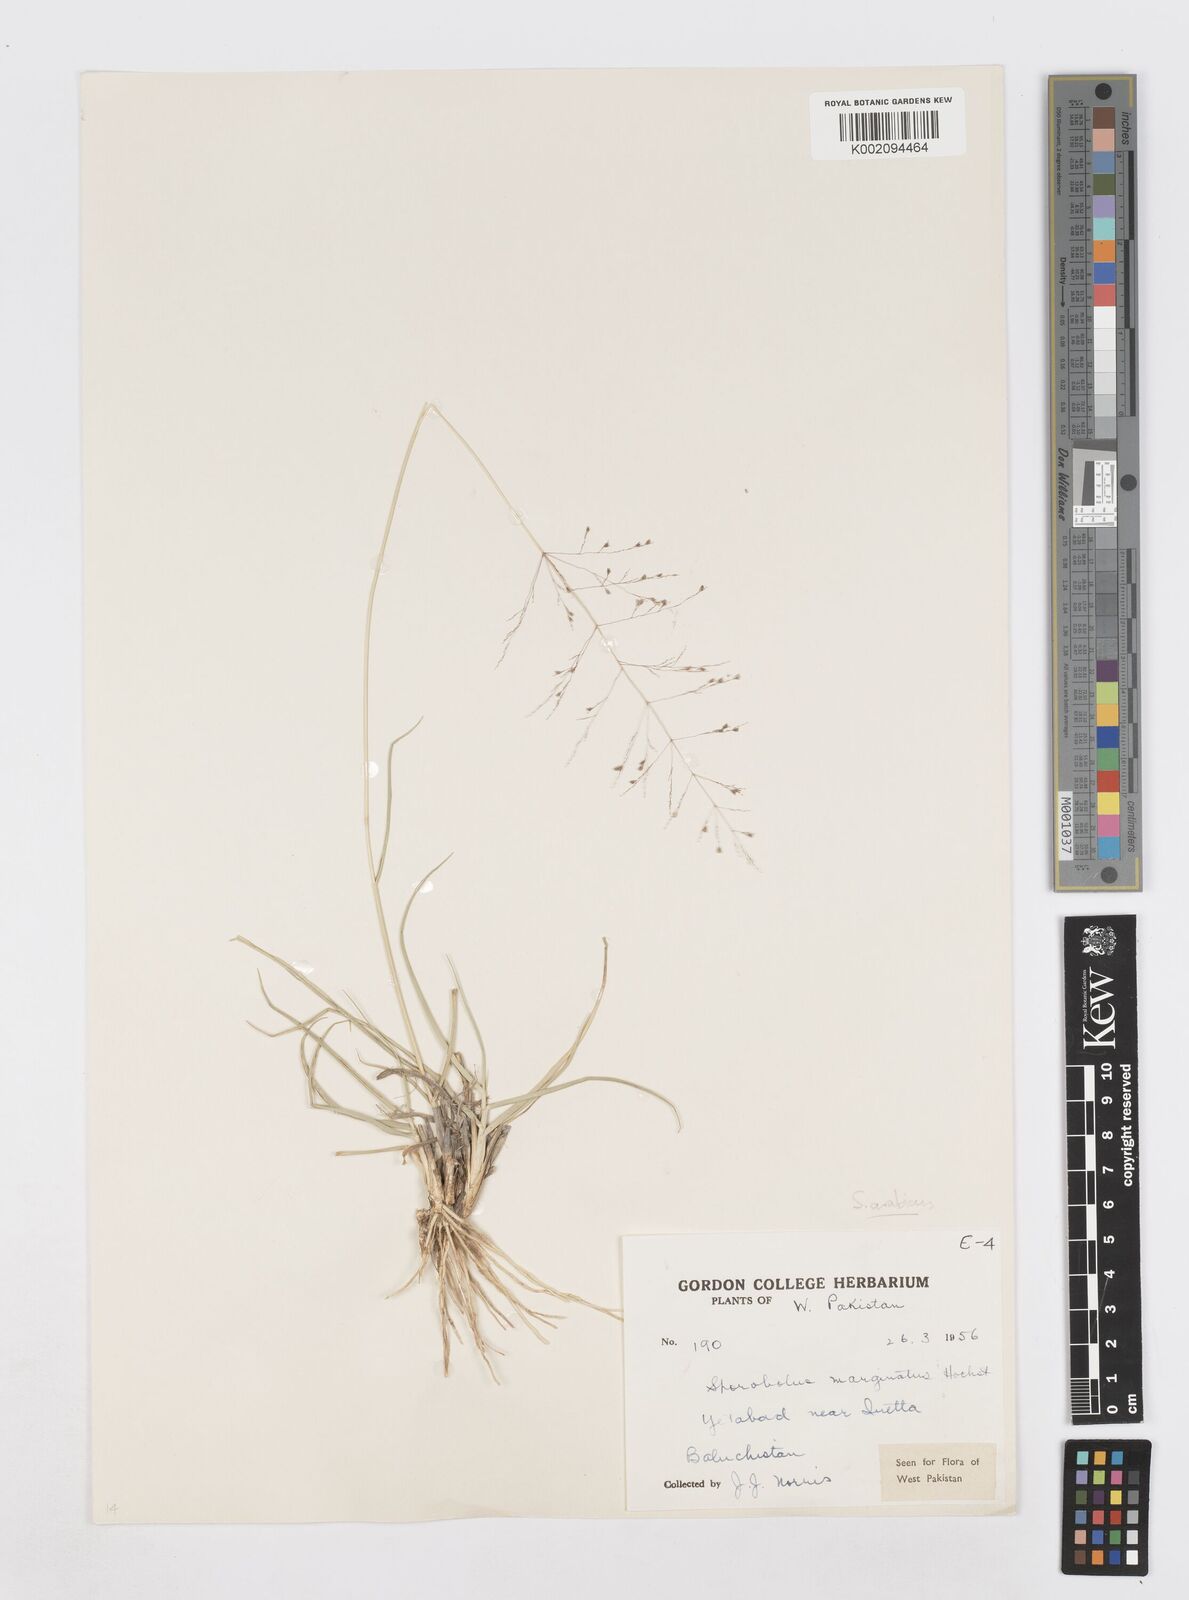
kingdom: Plantae
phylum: Tracheophyta
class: Liliopsida
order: Poales
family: Poaceae
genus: Sporobolus
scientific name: Sporobolus ioclados
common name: Pan dropseed
